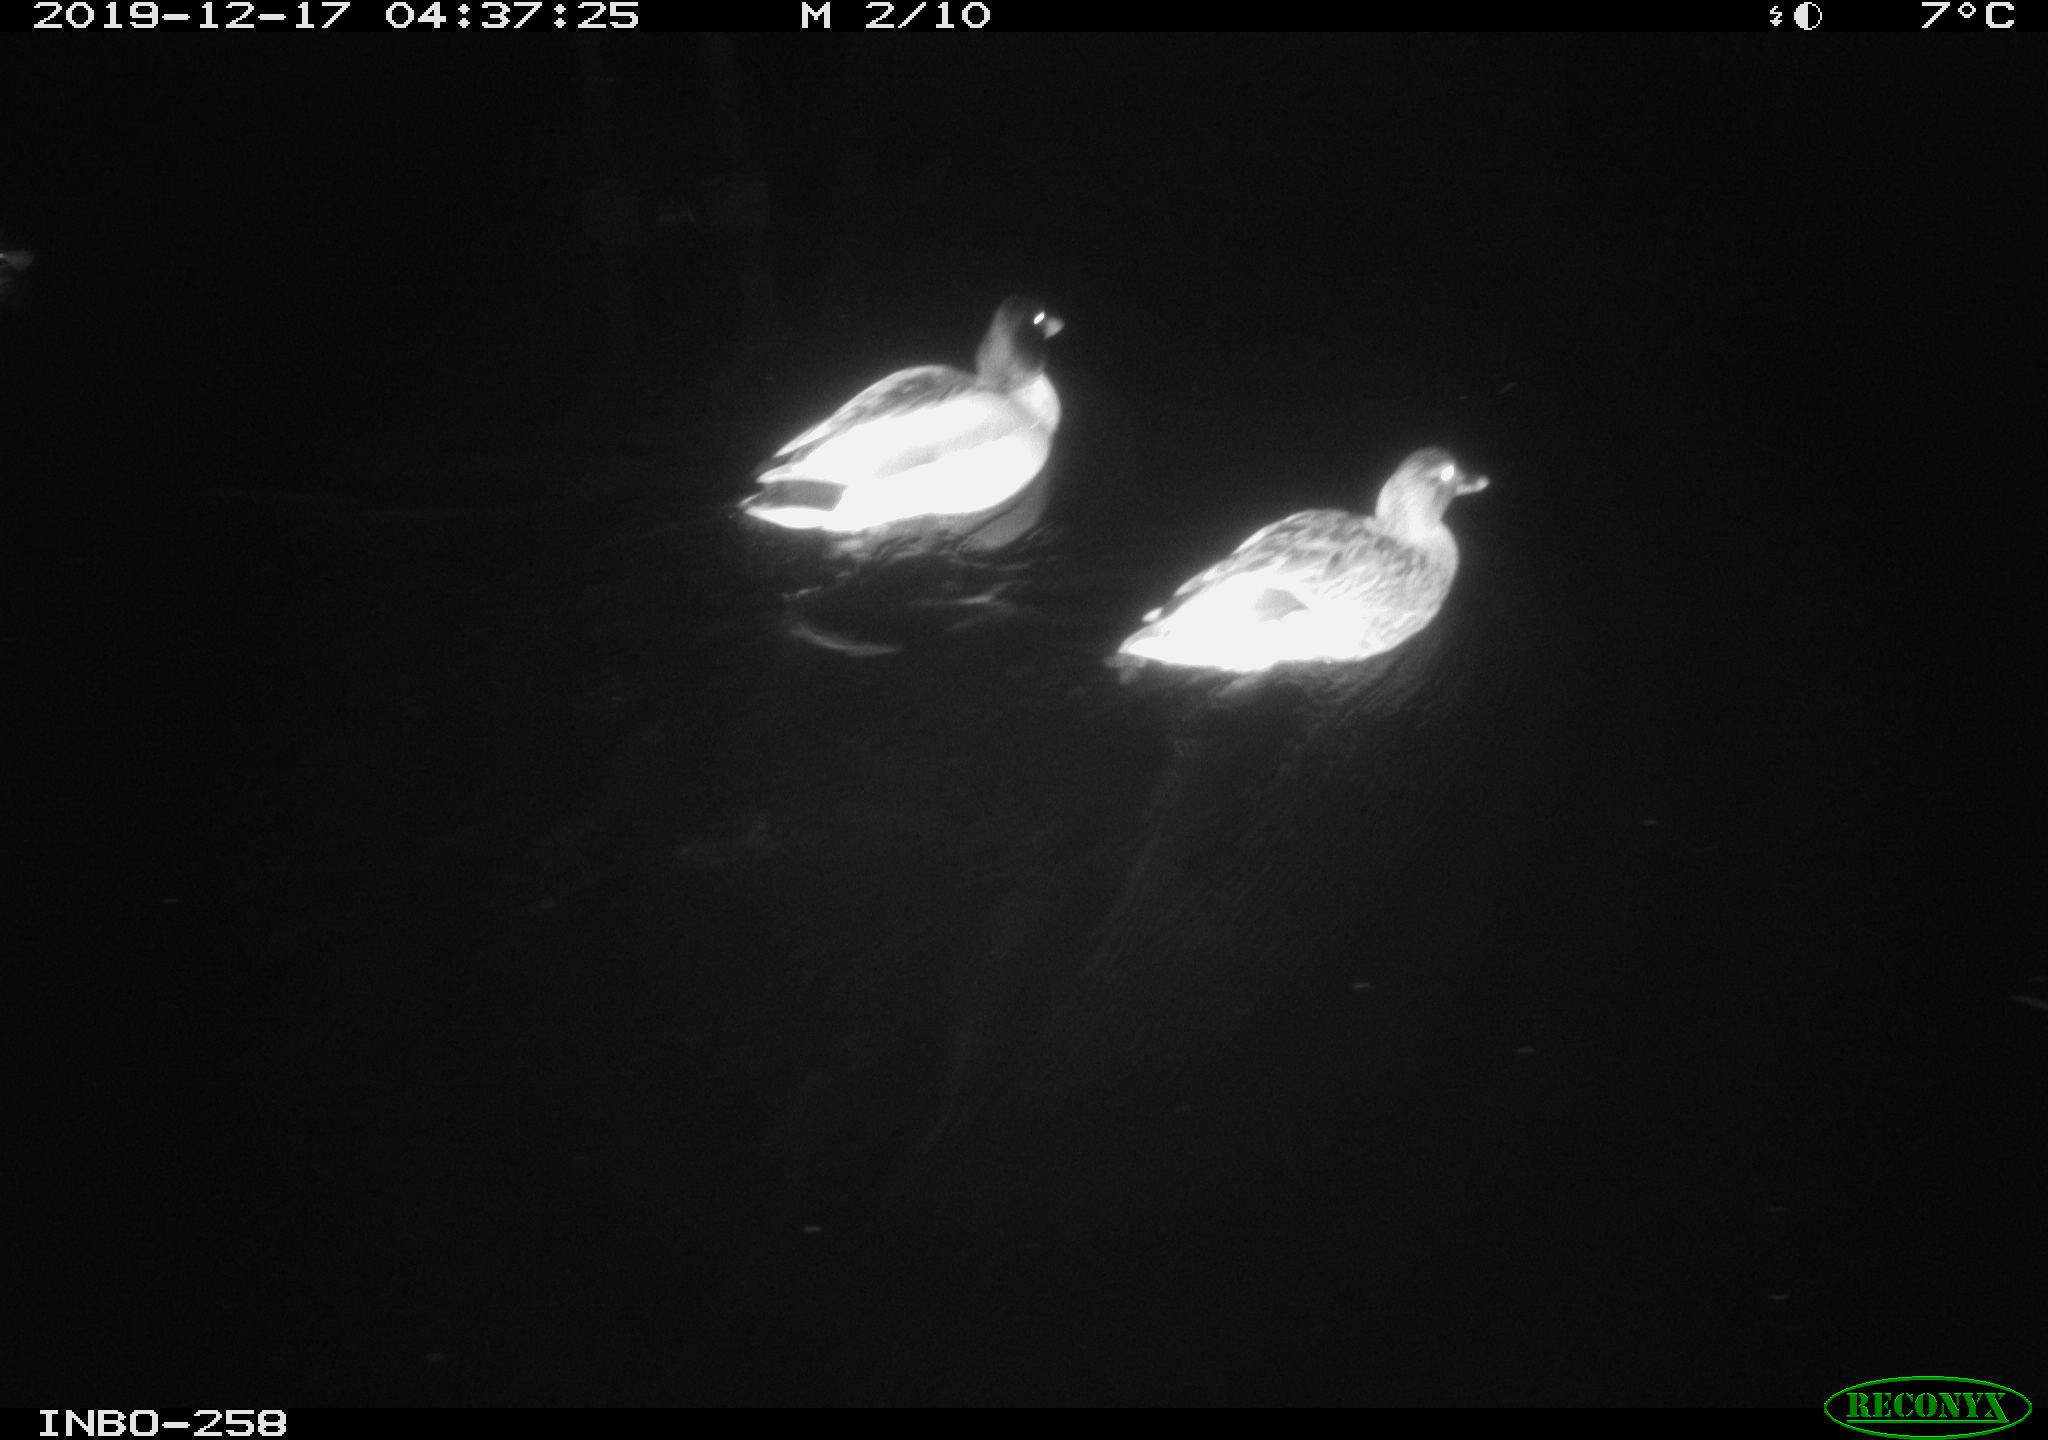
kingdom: Animalia
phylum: Chordata
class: Aves
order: Anseriformes
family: Anatidae
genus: Anas
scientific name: Anas platyrhynchos
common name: Mallard
